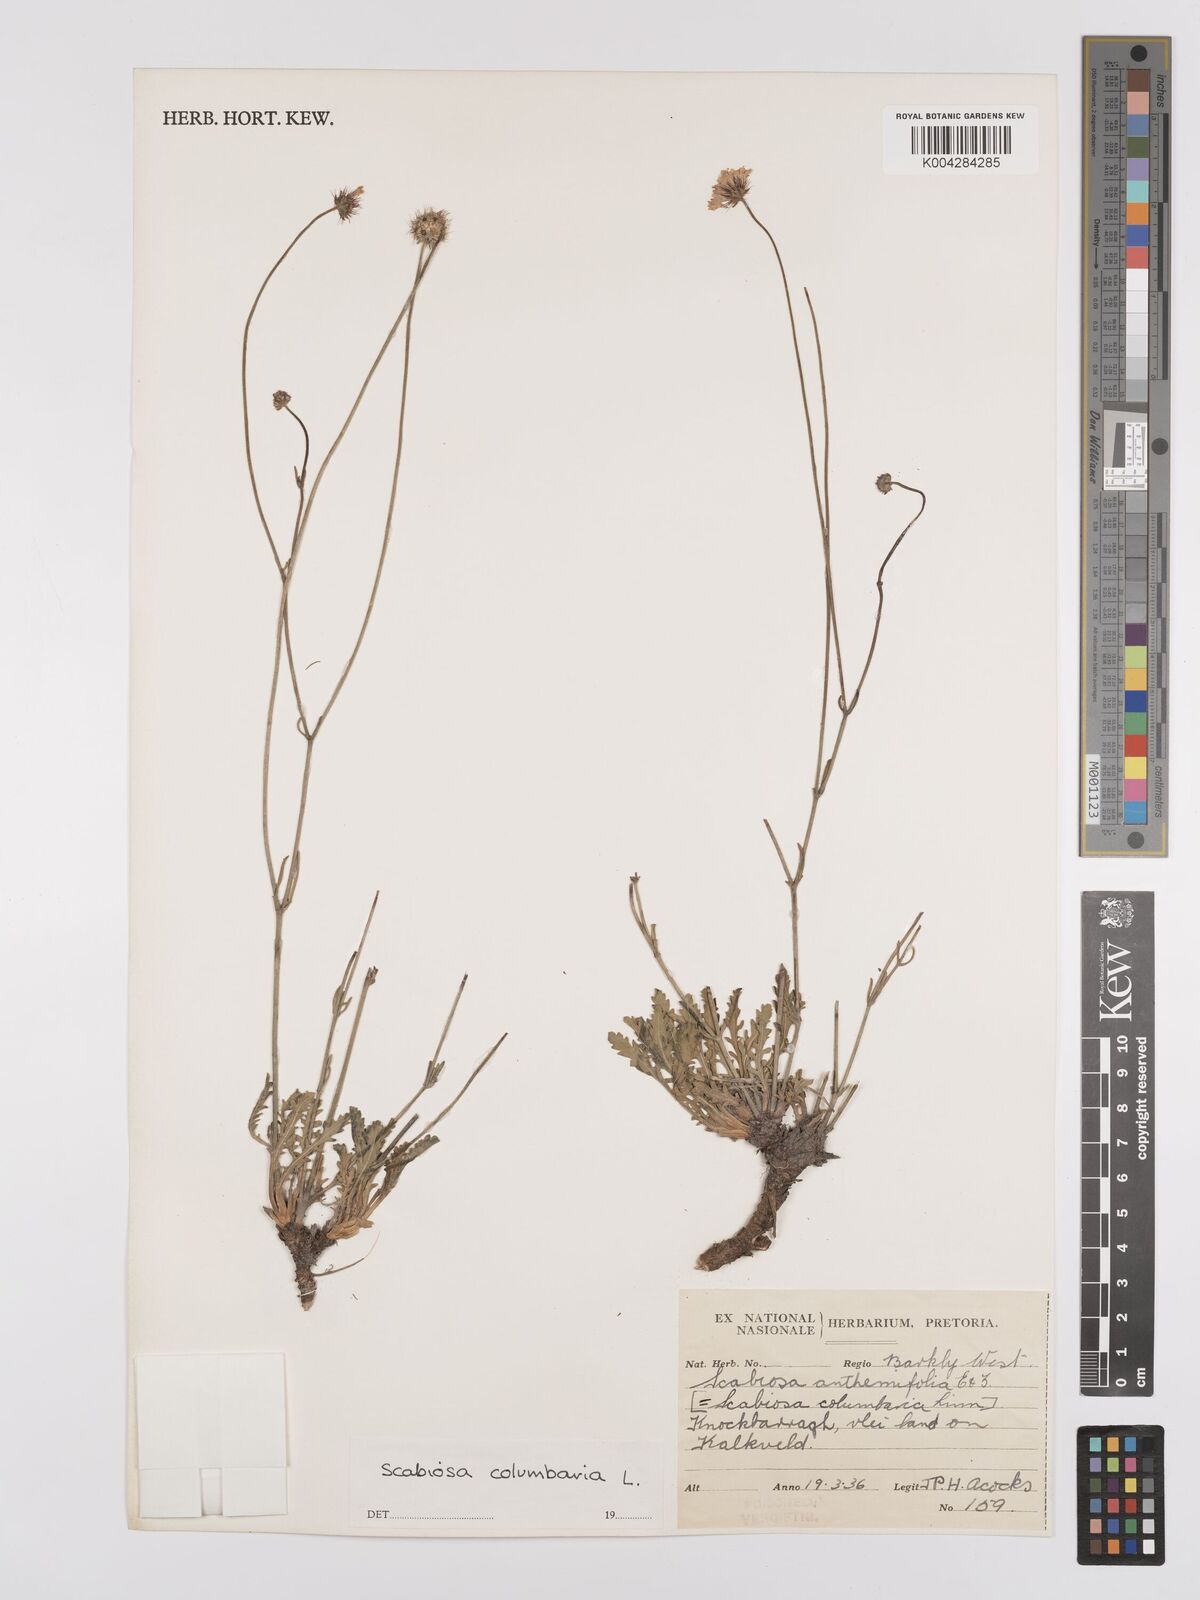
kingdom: Plantae
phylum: Tracheophyta
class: Magnoliopsida
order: Dipsacales
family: Caprifoliaceae
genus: Scabiosa
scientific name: Scabiosa columbaria
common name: Small scabious
